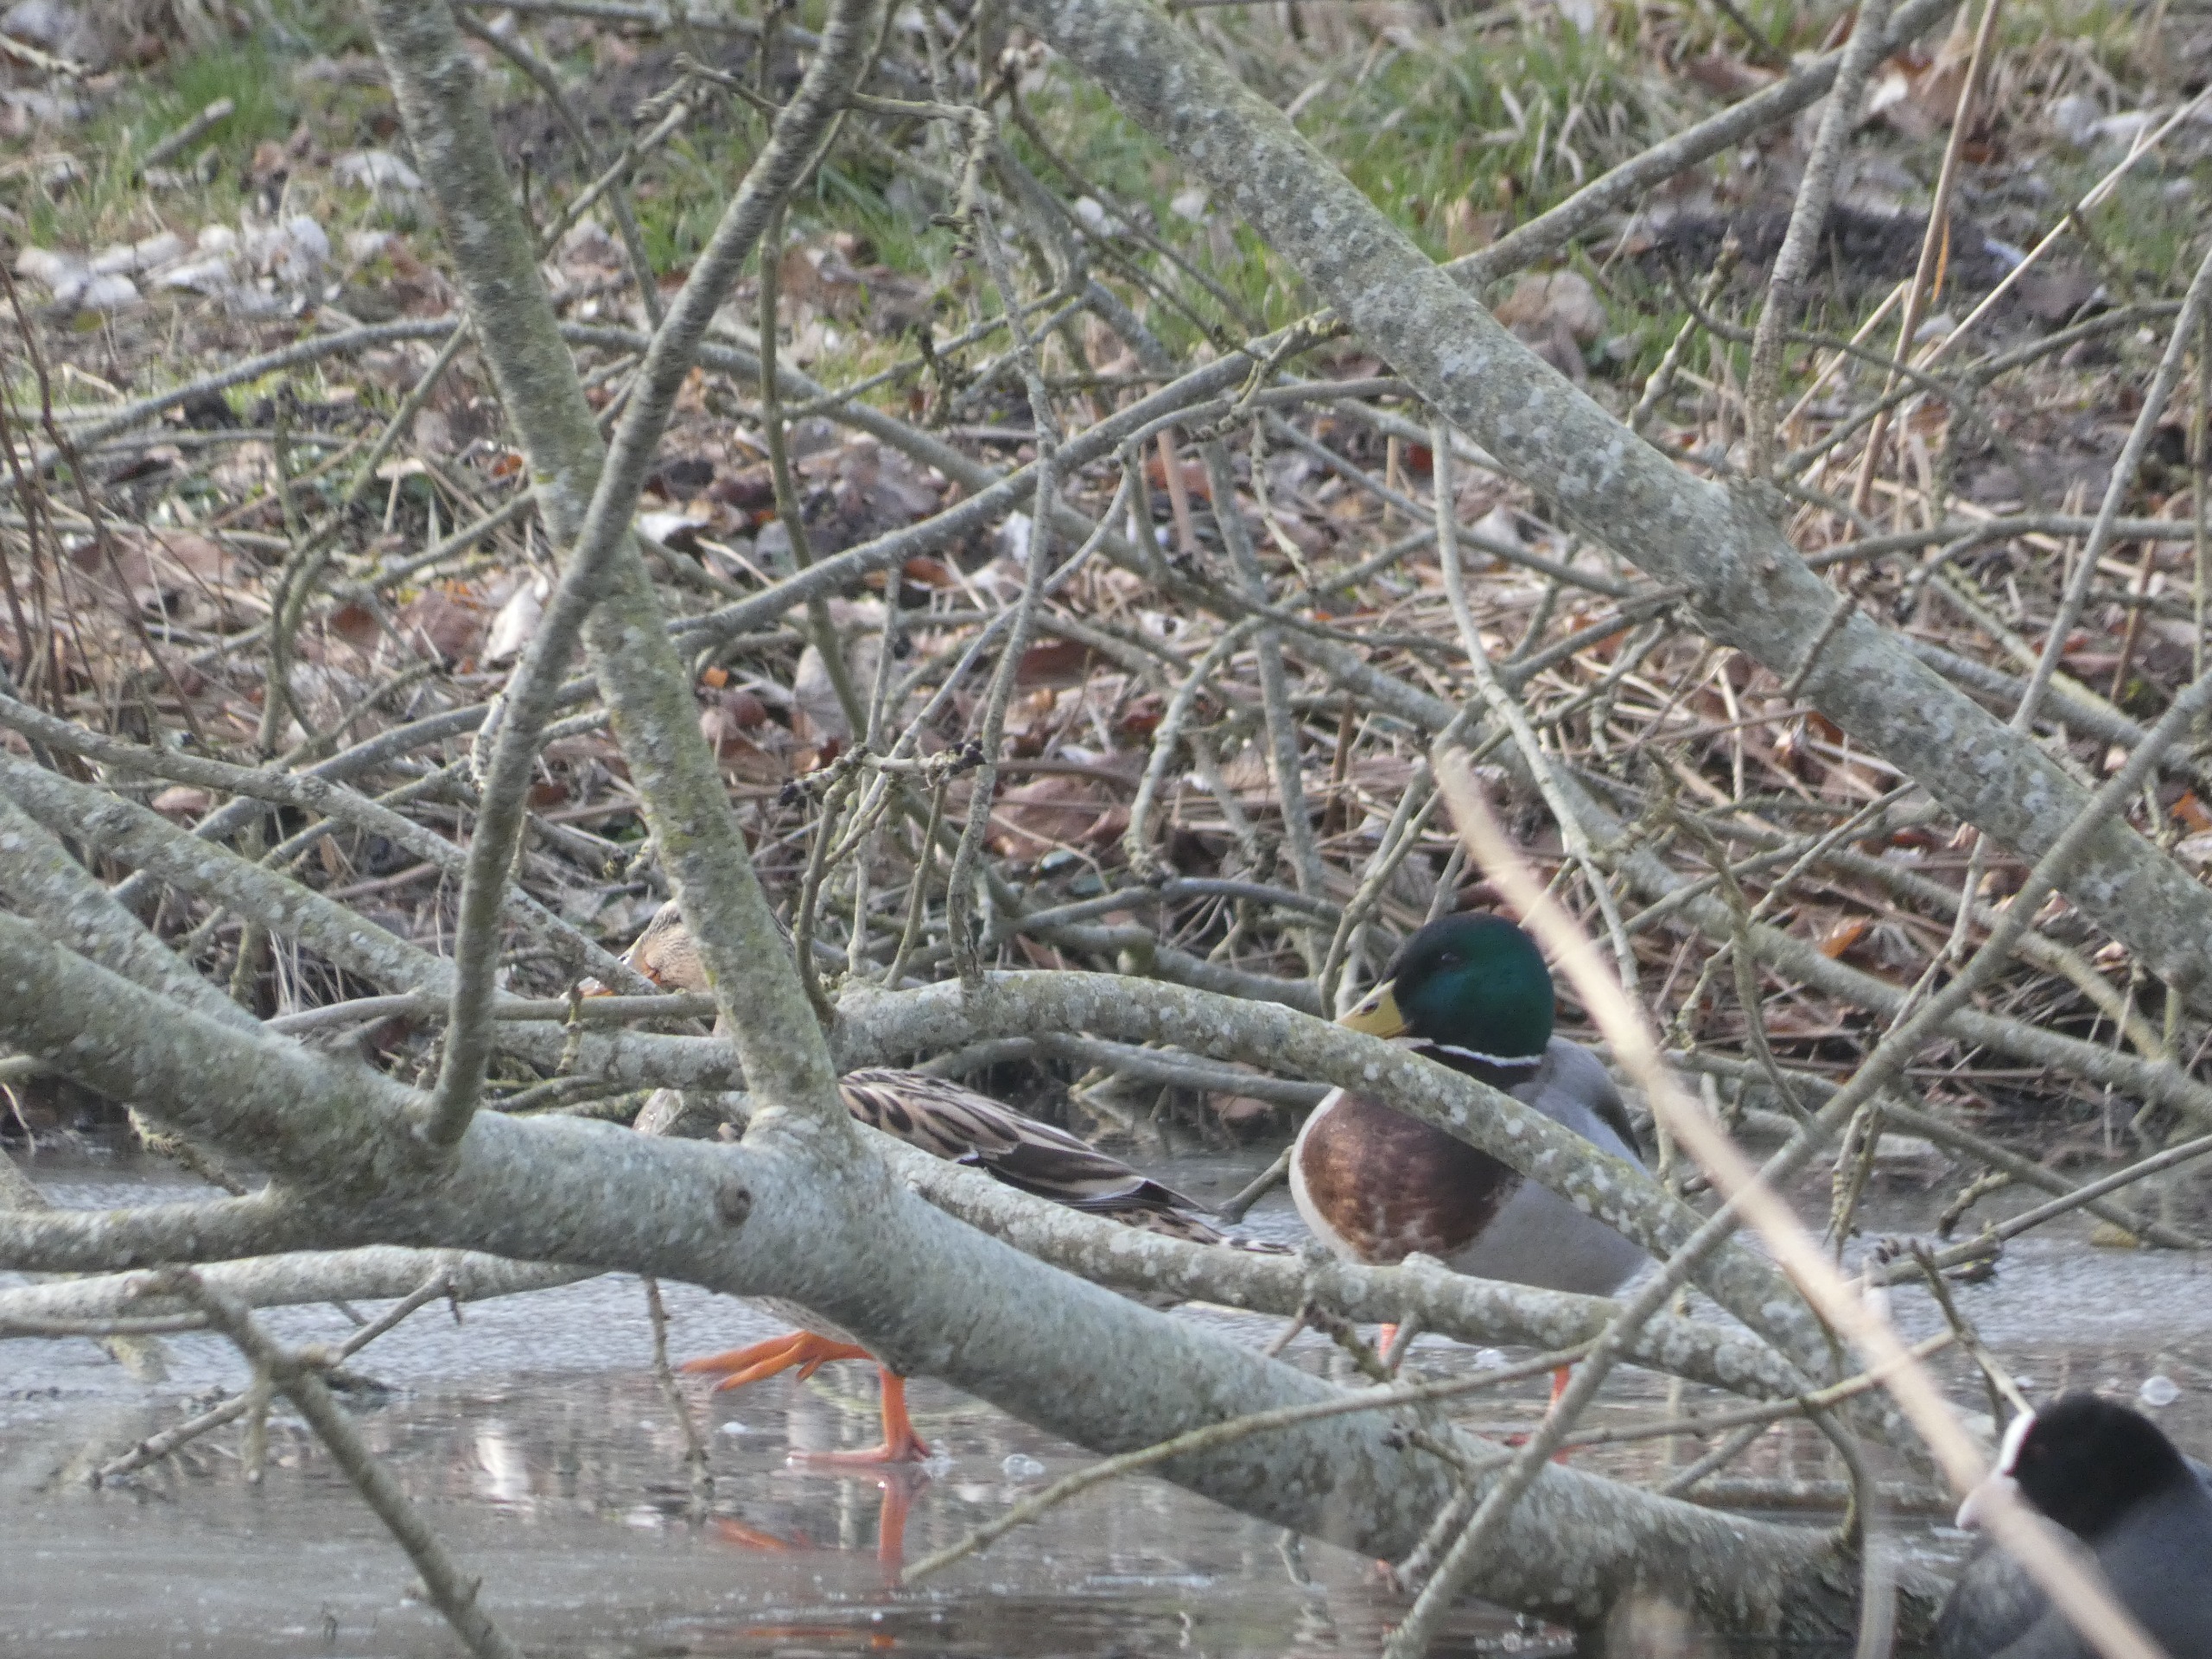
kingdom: Animalia
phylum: Chordata
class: Aves
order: Anseriformes
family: Anatidae
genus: Anas
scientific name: Anas platyrhynchos
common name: Gråand
